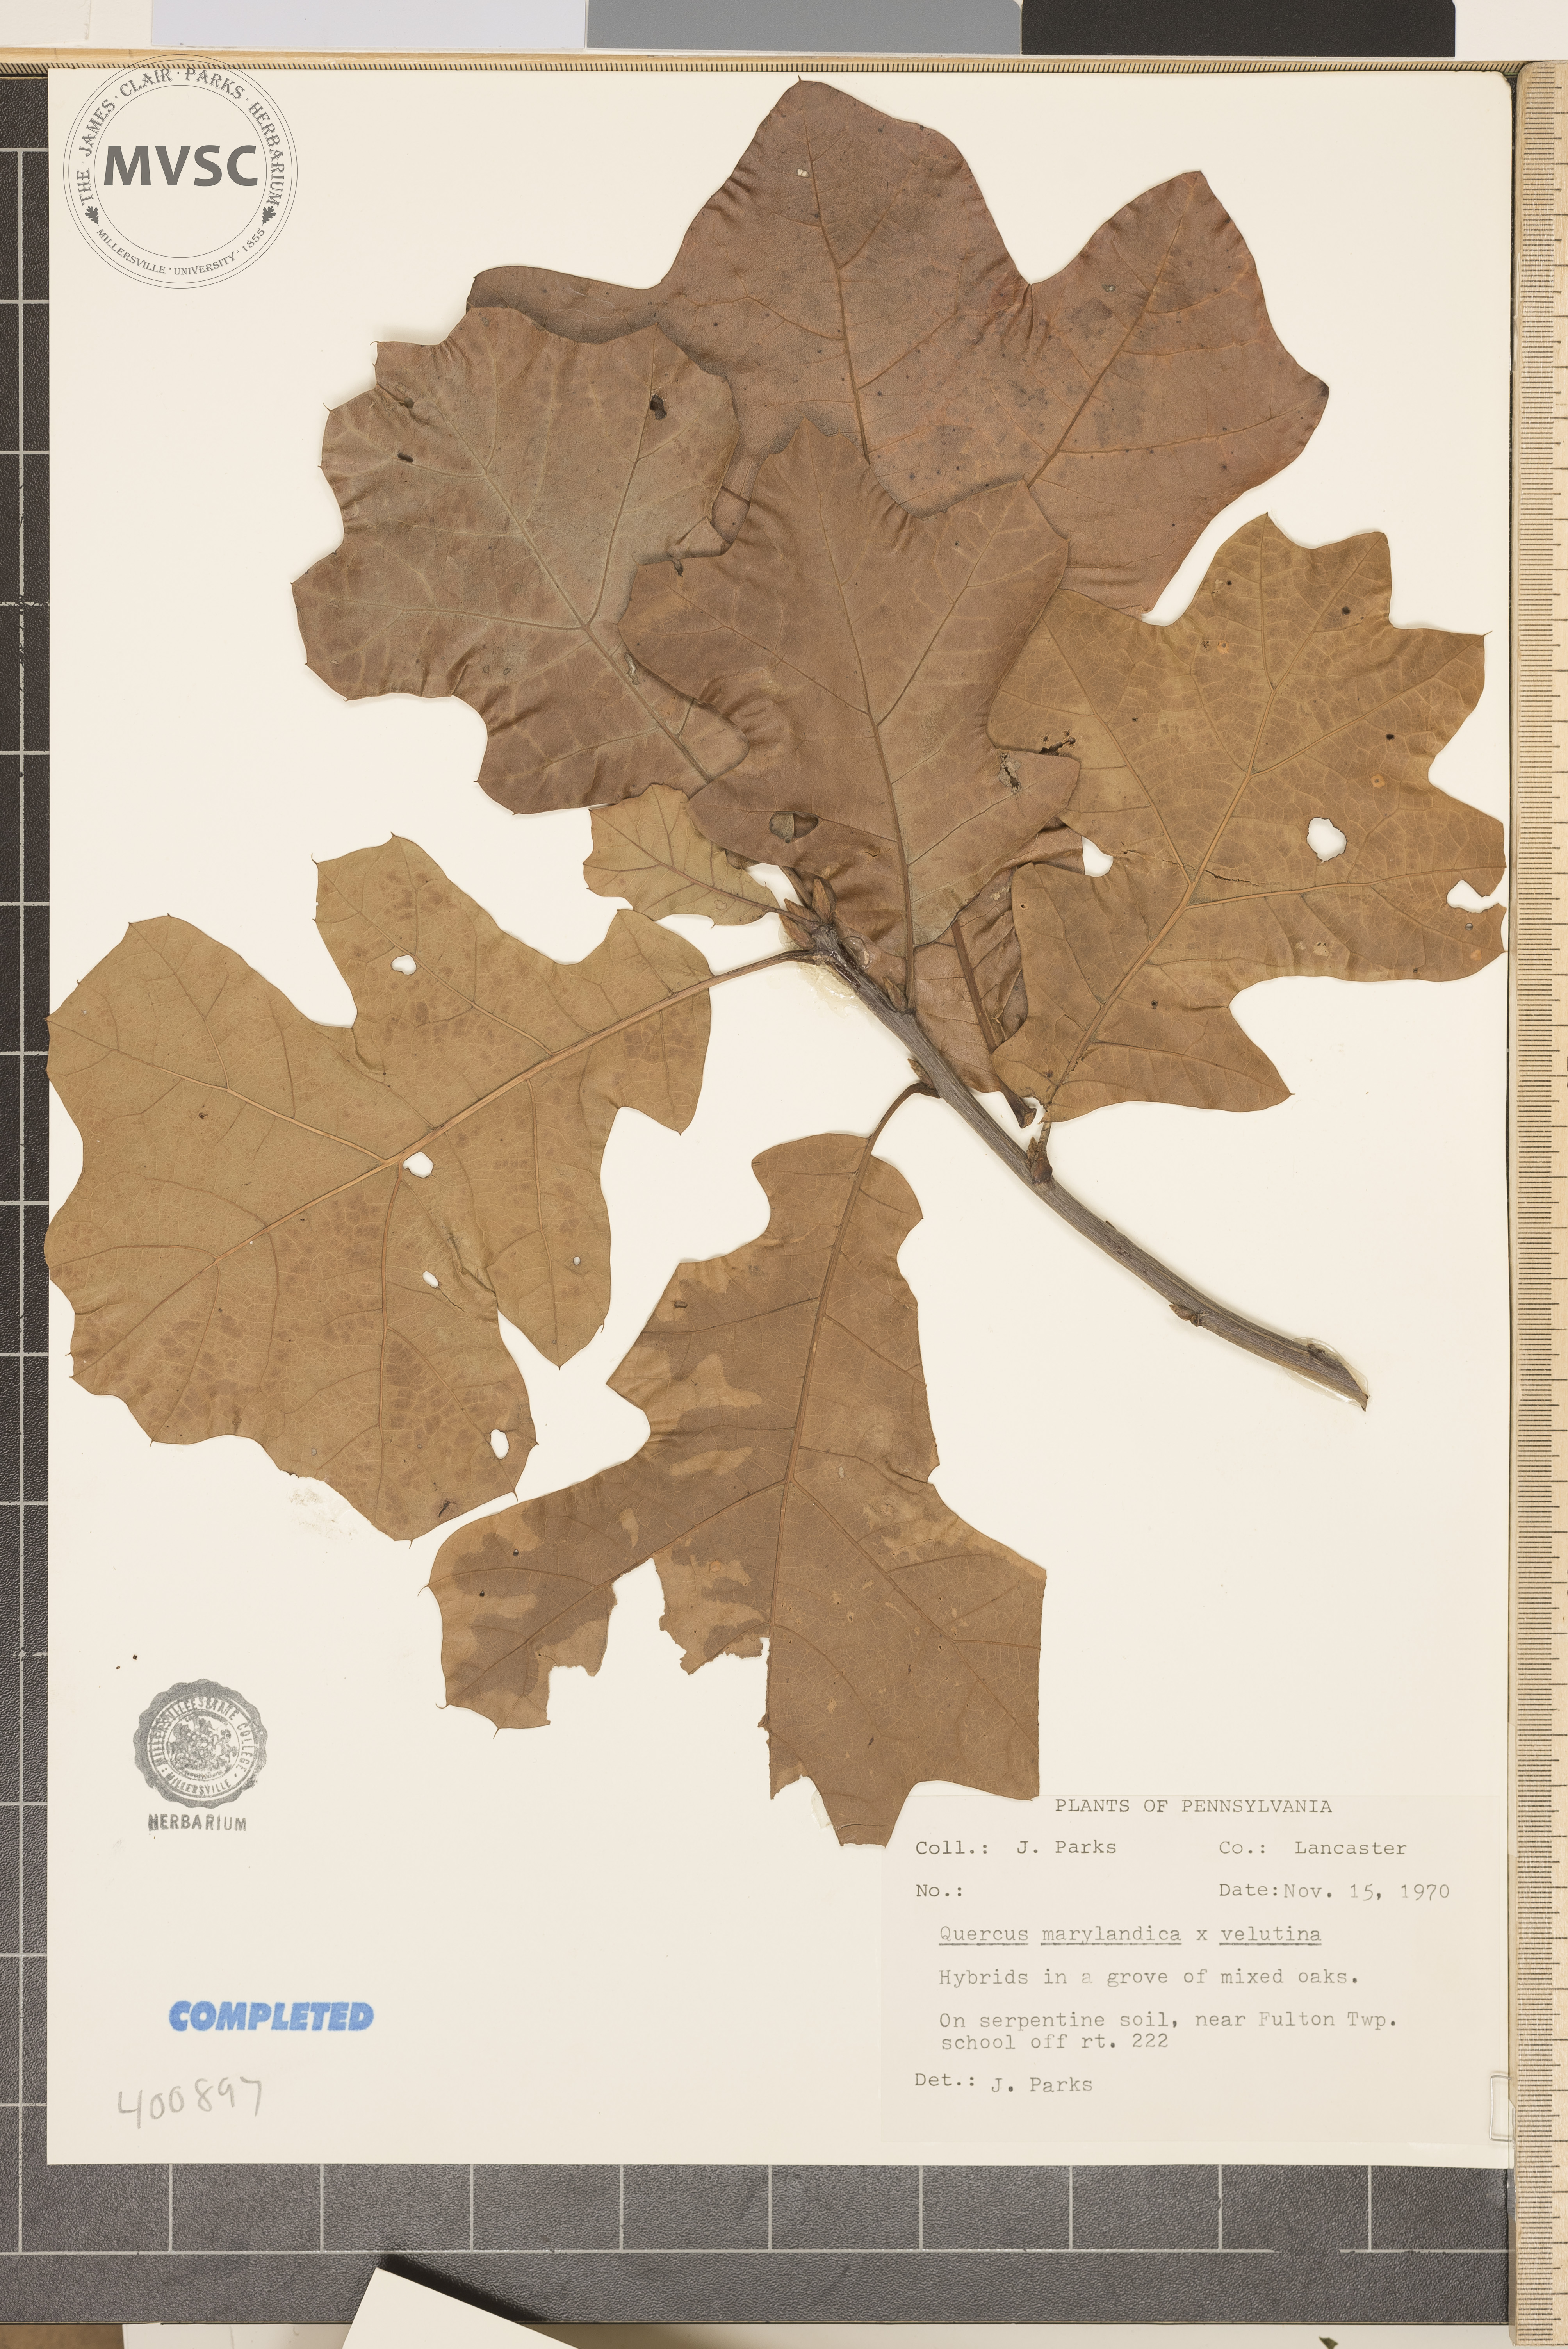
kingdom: Plantae
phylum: Tracheophyta
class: Magnoliopsida
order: Fagales
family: Fagaceae
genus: Quercus
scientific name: Quercus
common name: blackjack oak
